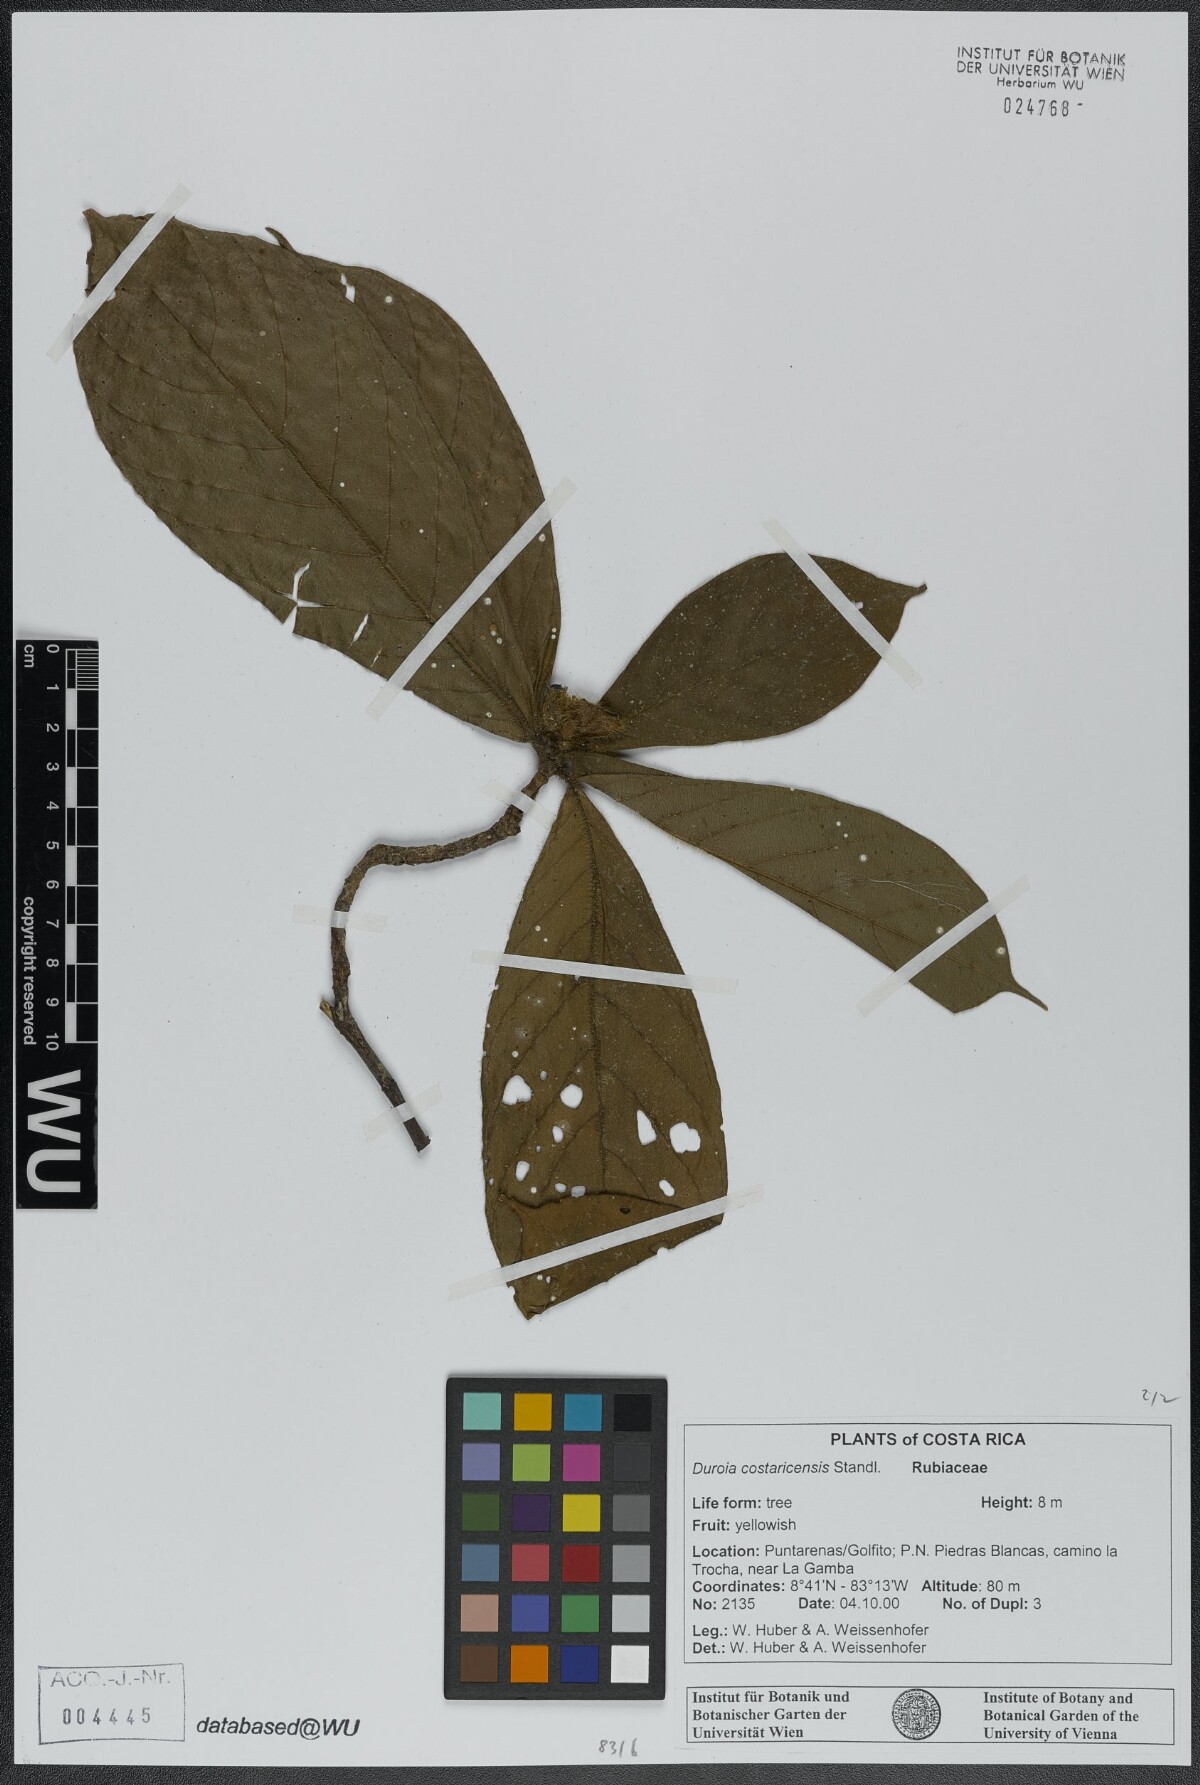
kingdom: Plantae
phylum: Tracheophyta
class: Magnoliopsida
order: Gentianales
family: Rubiaceae
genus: Duroia
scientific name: Duroia costaricensis
